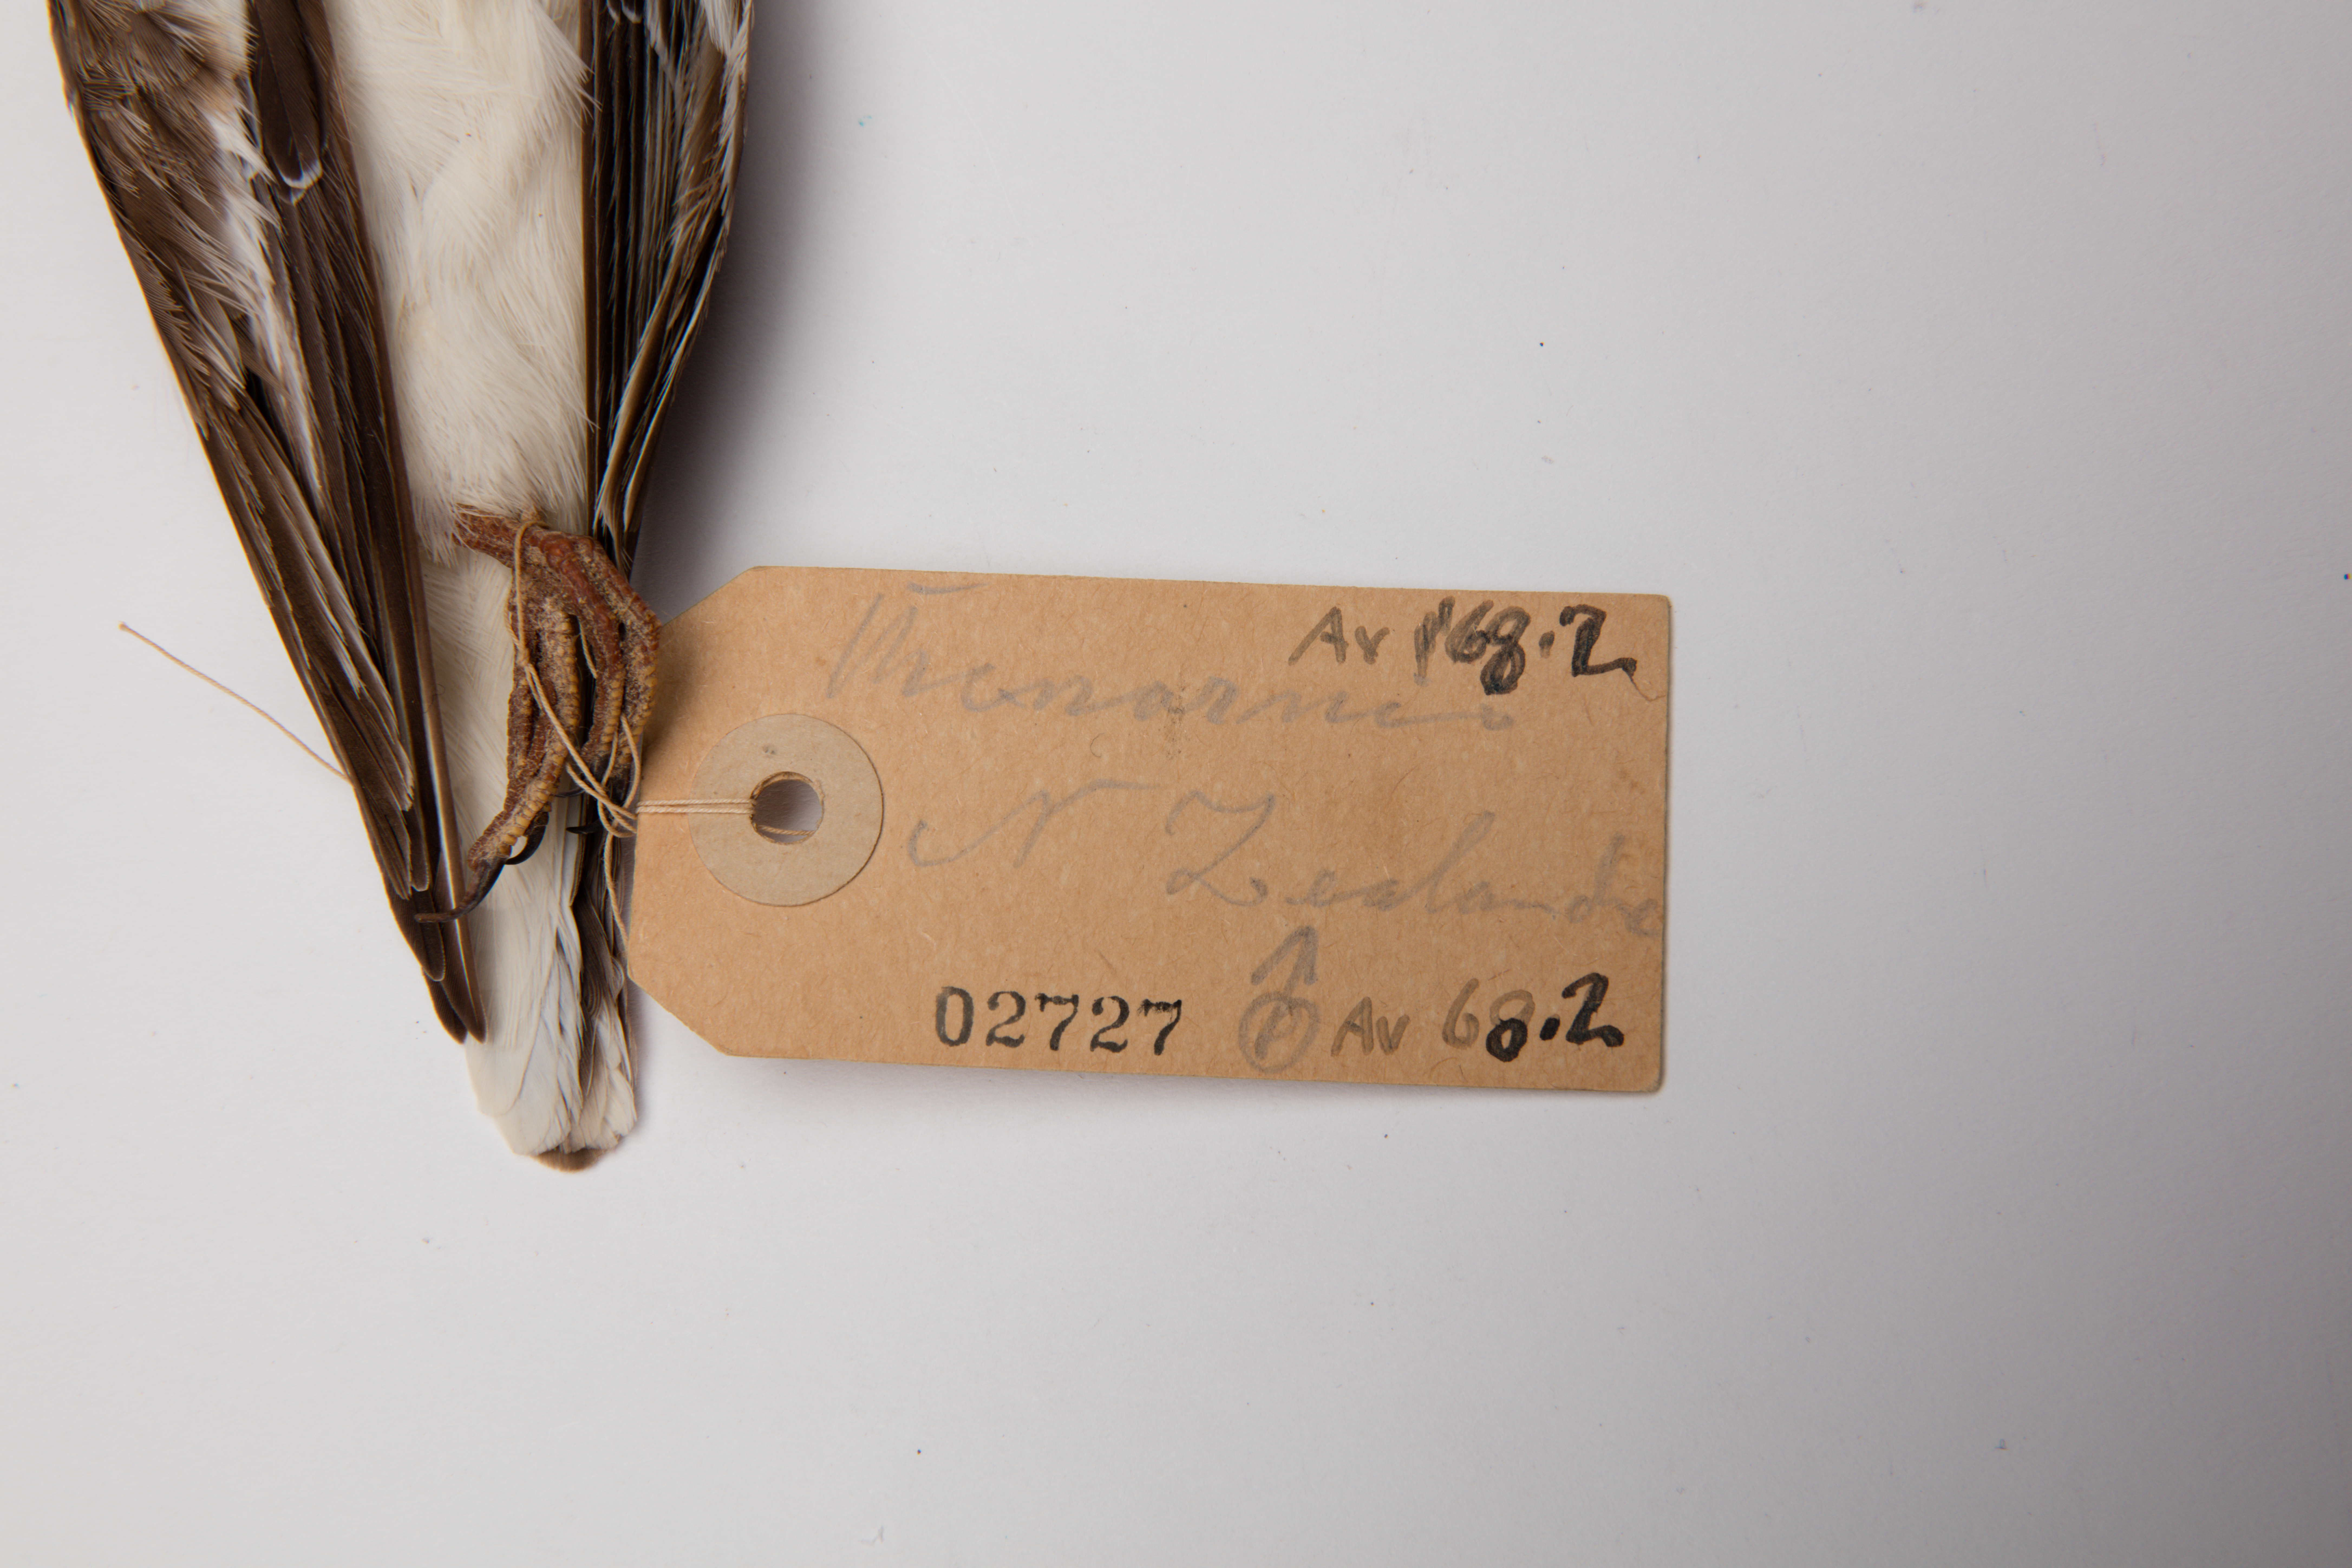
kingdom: Animalia
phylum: Chordata
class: Aves
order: Charadriiformes
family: Charadriidae
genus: Thinornis
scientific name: Thinornis novaeseelandiae
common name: Shore dotterel
